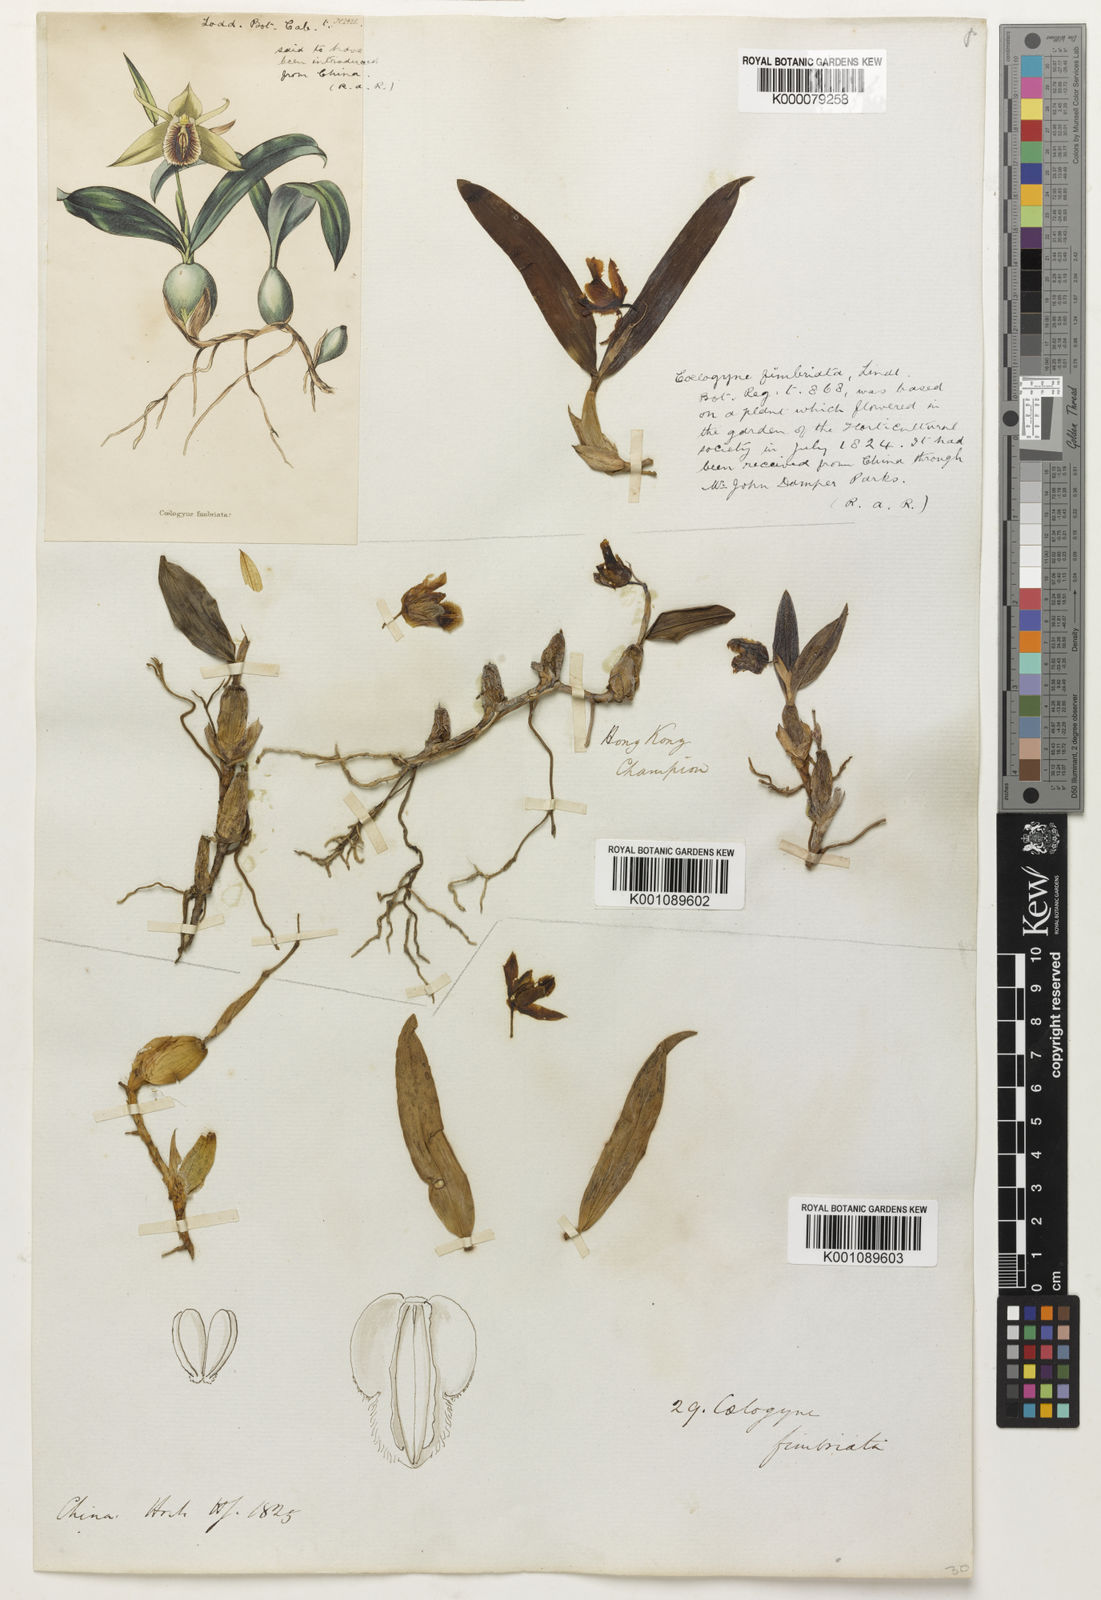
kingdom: Plantae
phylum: Tracheophyta
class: Liliopsida
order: Asparagales
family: Orchidaceae
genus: Coelogyne
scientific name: Coelogyne fimbriata
